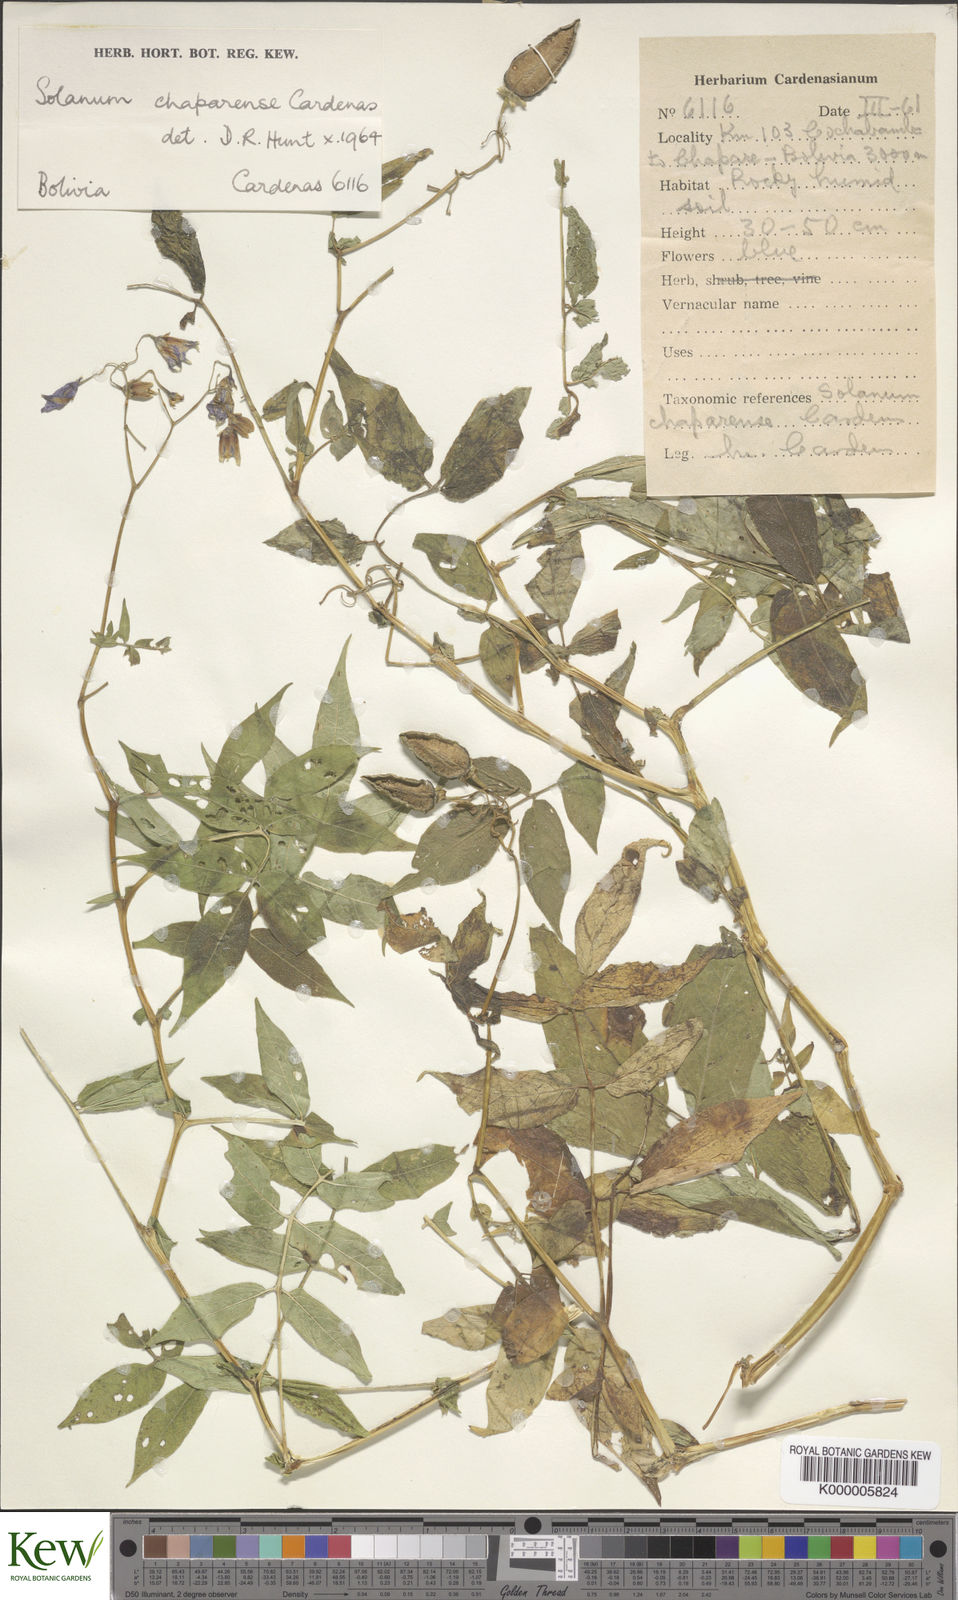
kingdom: Plantae
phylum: Tracheophyta
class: Magnoliopsida
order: Solanales
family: Solanaceae
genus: Solanum
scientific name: Solanum
